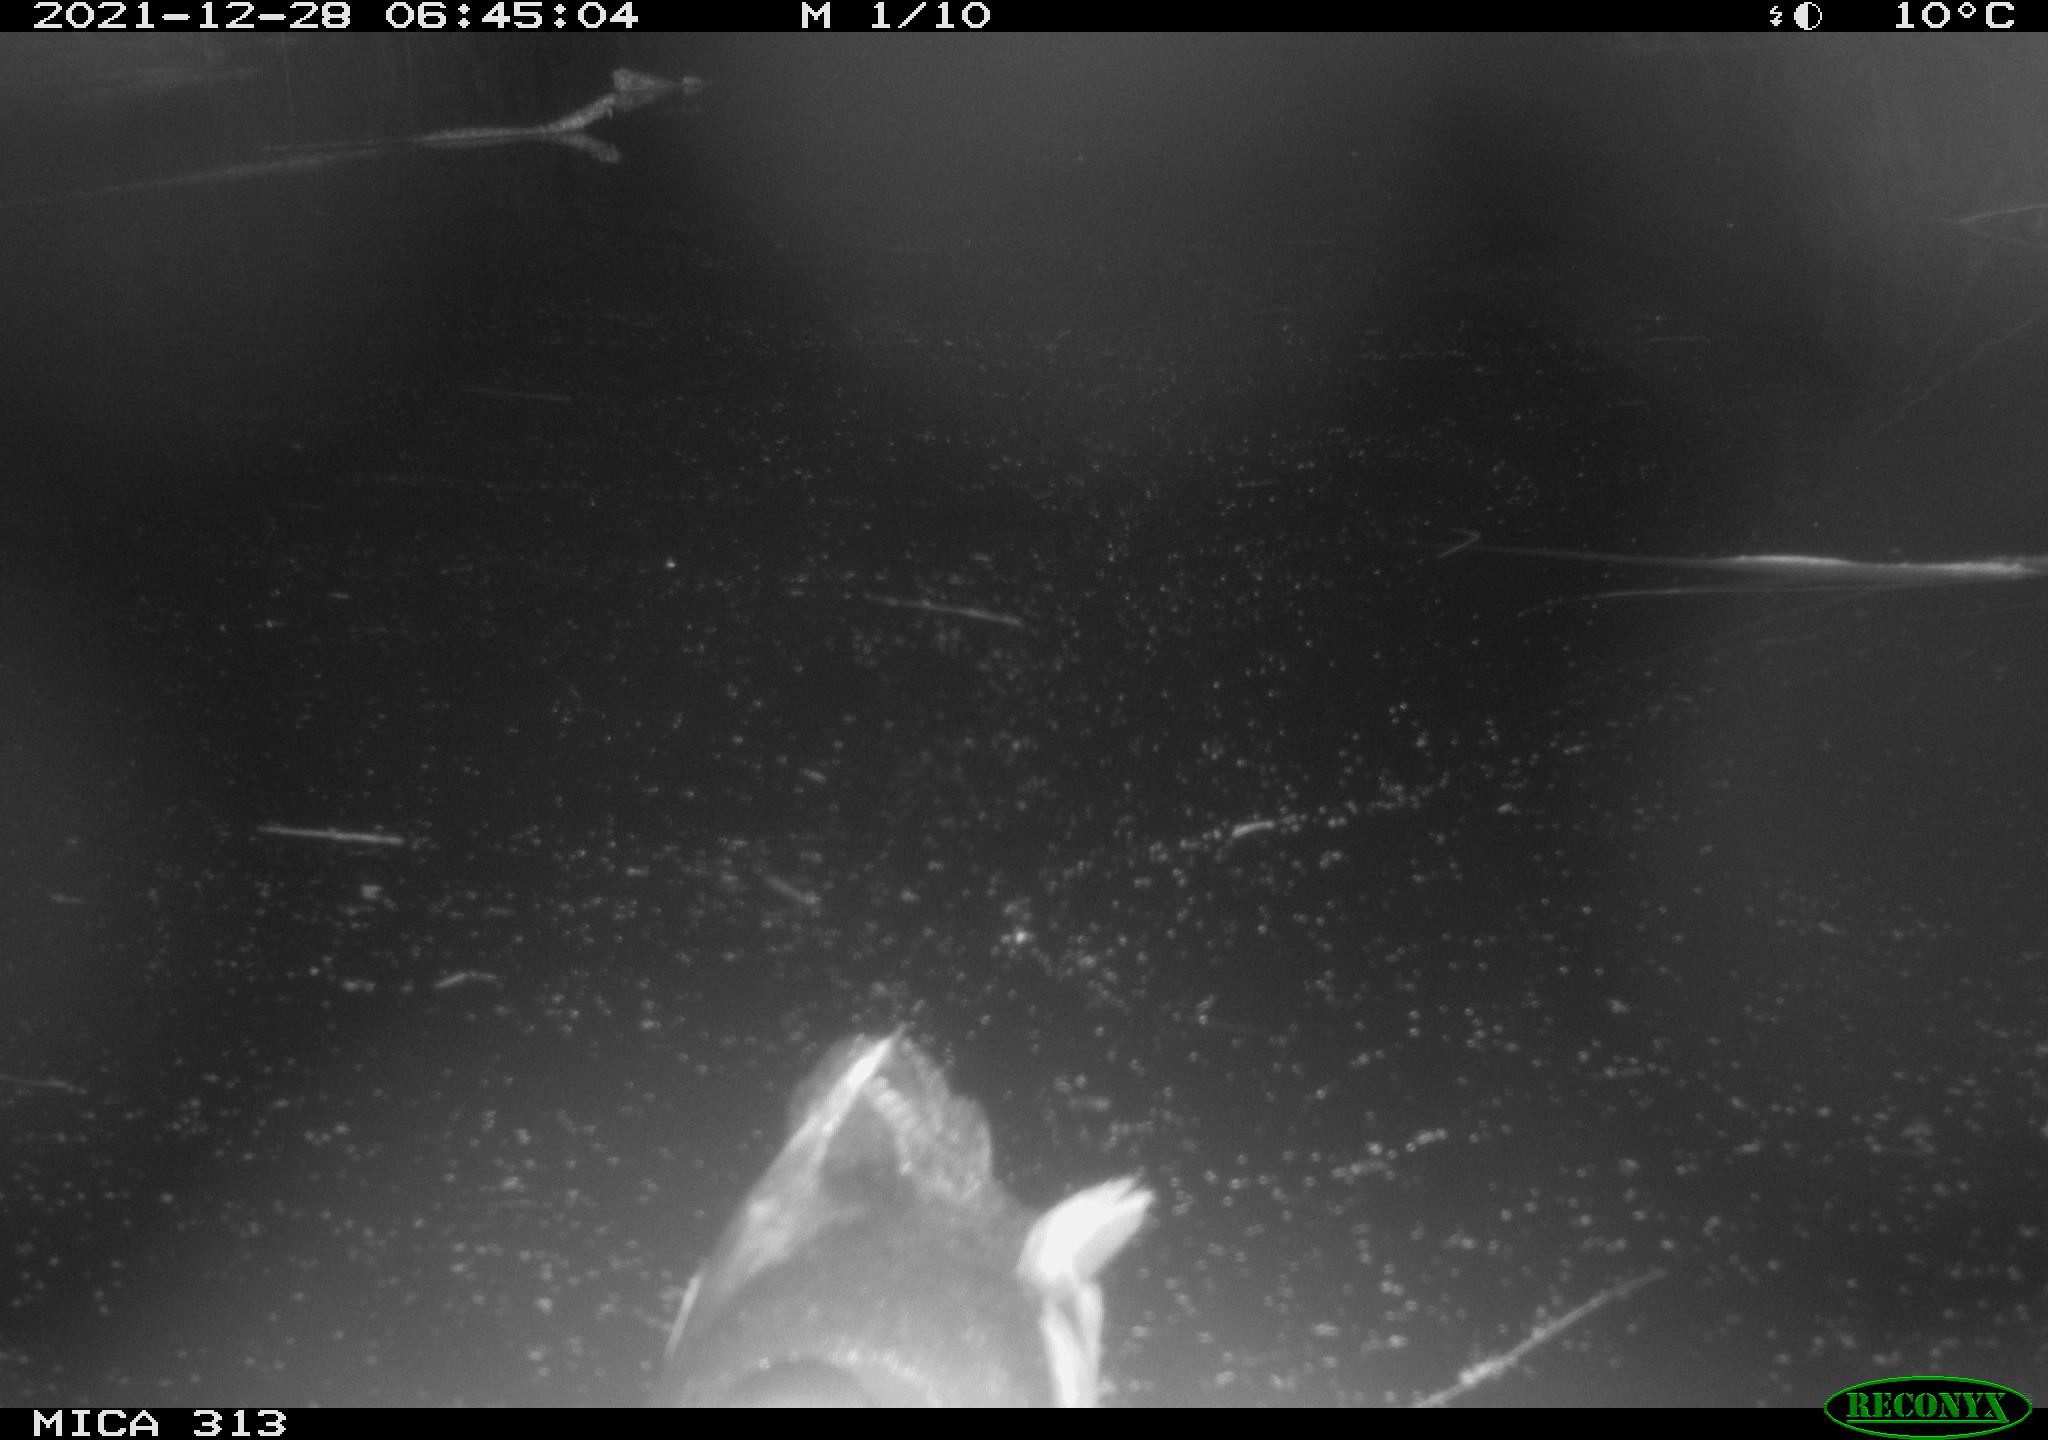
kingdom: Animalia
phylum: Chordata
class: Aves
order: Gruiformes
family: Rallidae
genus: Gallinula
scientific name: Gallinula chloropus
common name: Common moorhen
